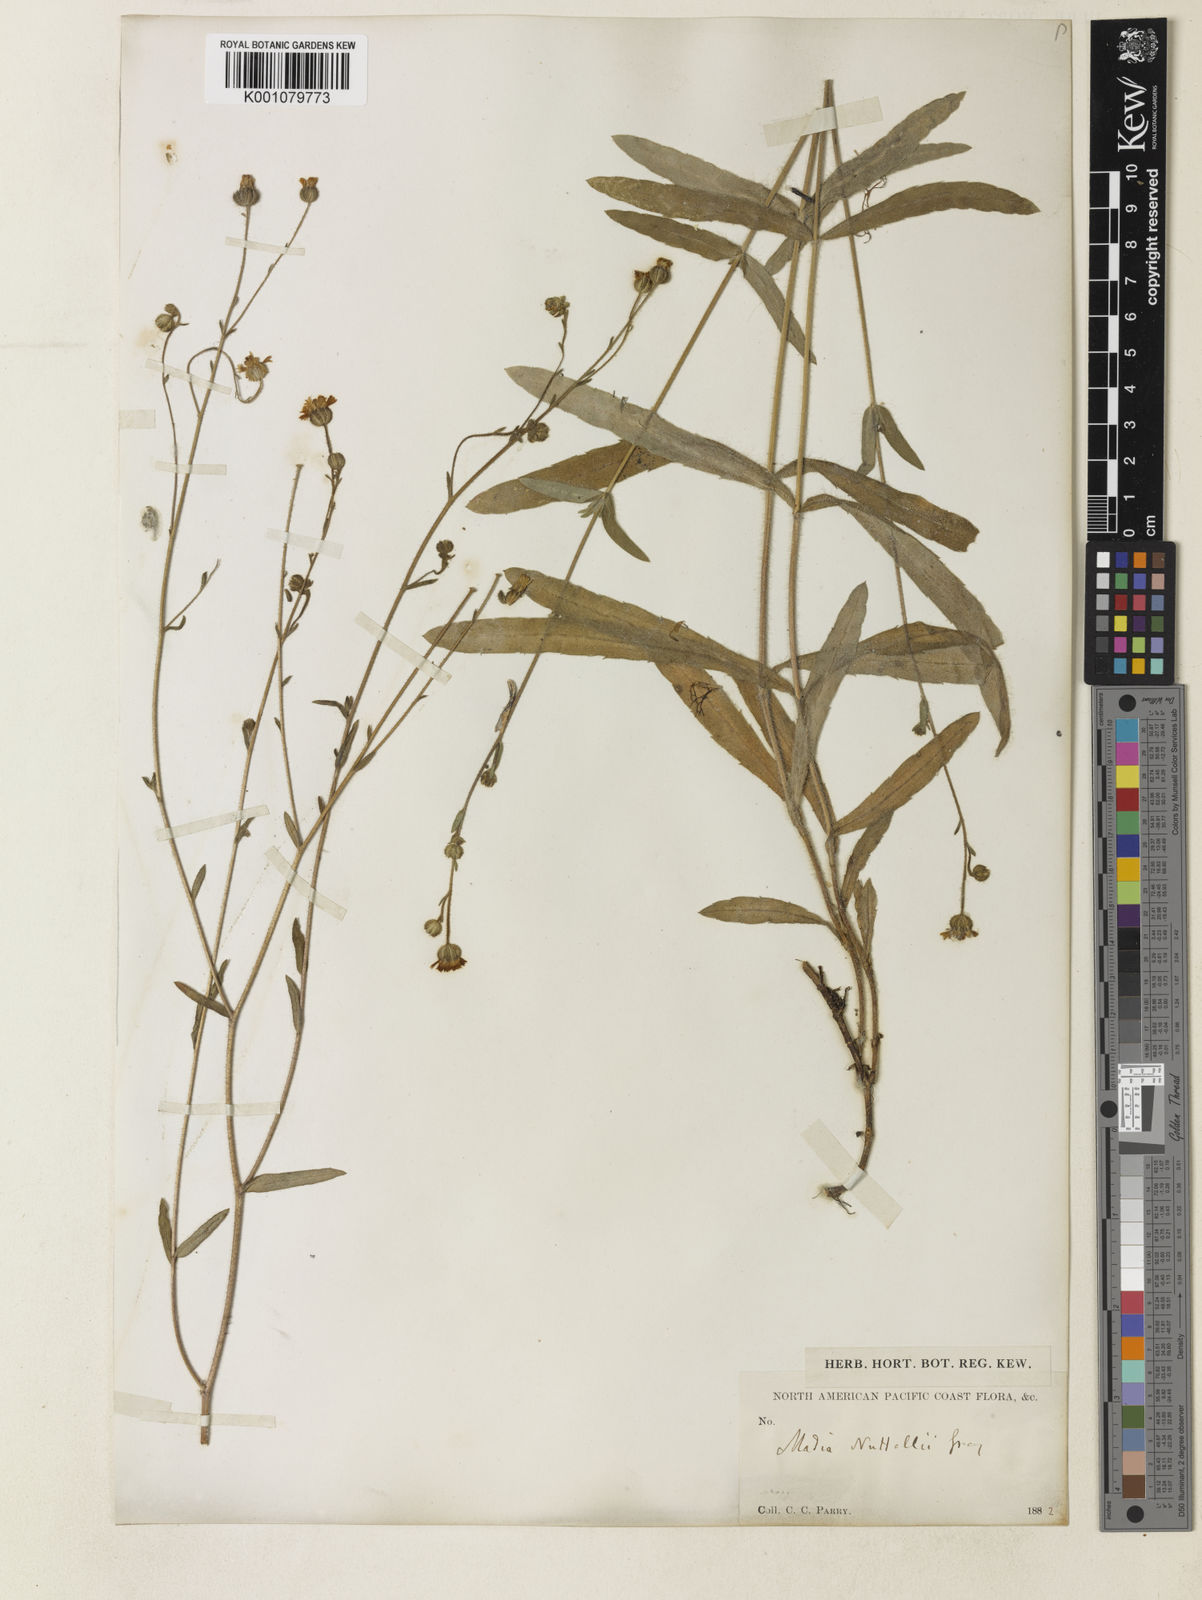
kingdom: Plantae
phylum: Tracheophyta
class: Magnoliopsida
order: Asterales
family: Asteraceae
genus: Anisocarpus
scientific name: Anisocarpus madioides
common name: Woodland madia
